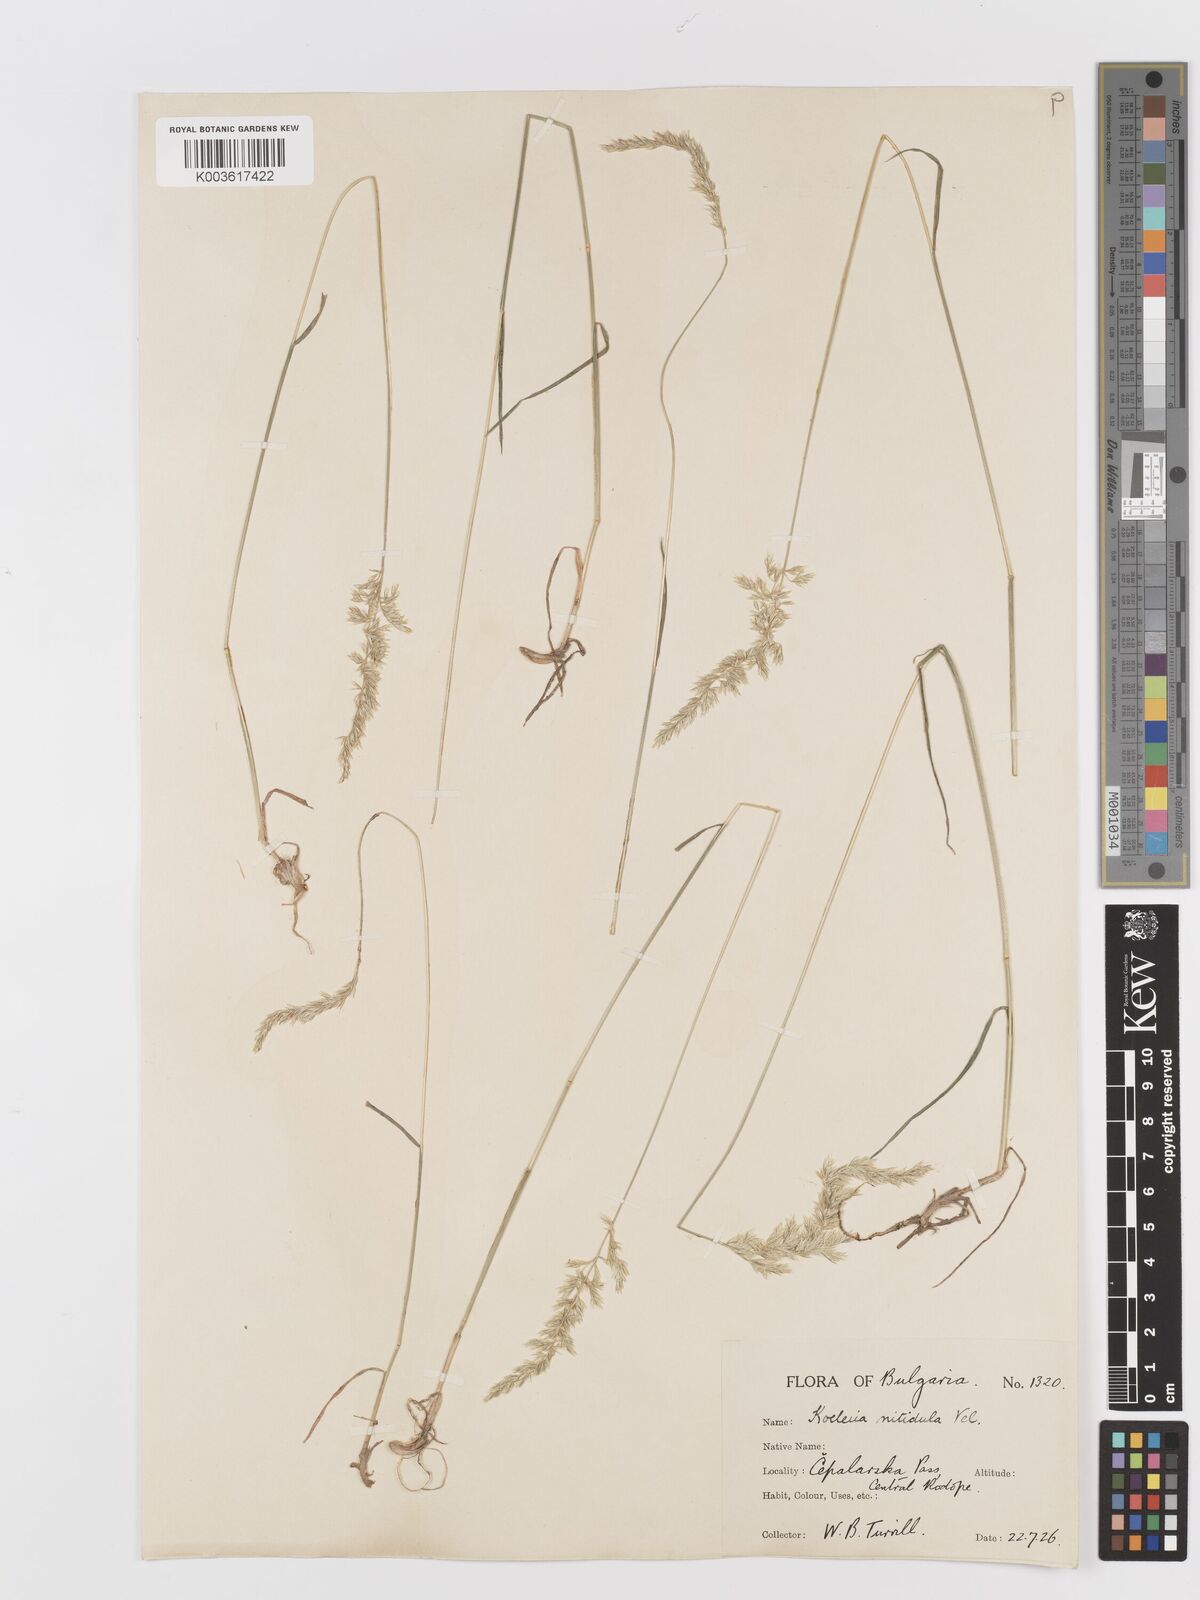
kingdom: Plantae
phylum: Tracheophyta
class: Liliopsida
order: Poales
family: Poaceae
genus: Koeleria
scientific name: Koeleria nitidula
